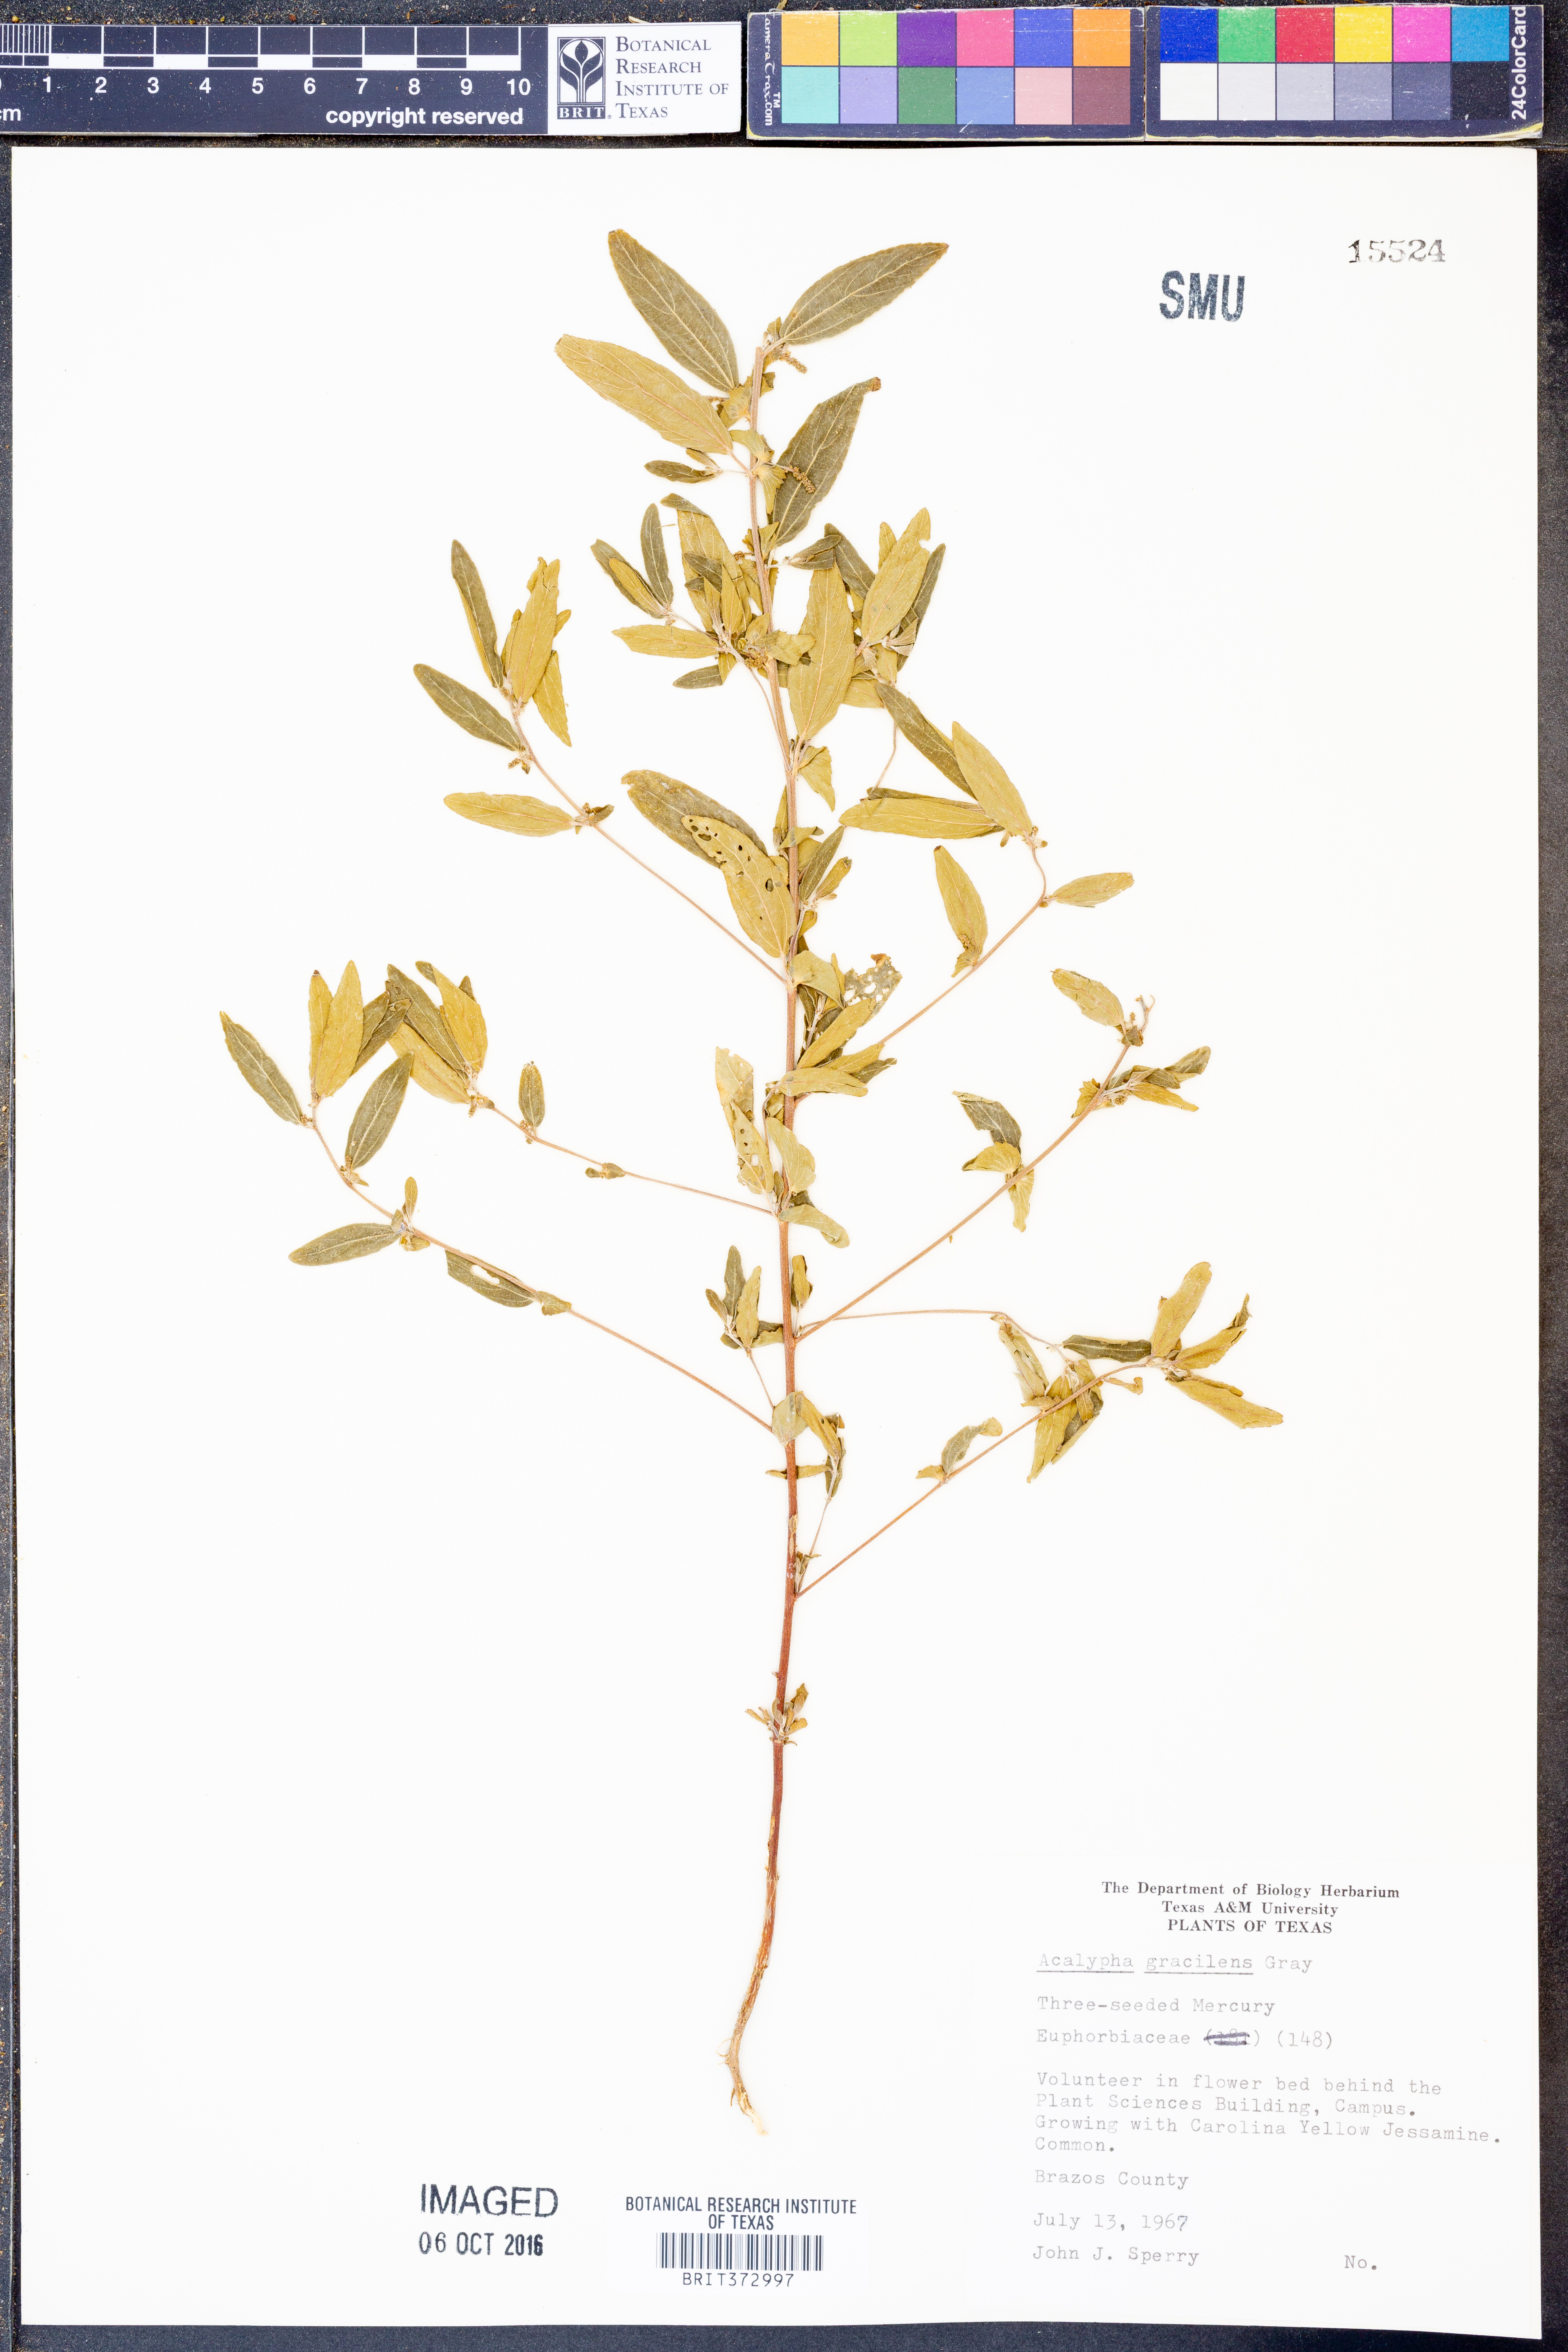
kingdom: Plantae
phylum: Tracheophyta
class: Magnoliopsida
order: Malpighiales
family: Euphorbiaceae
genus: Acalypha
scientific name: Acalypha gracilens
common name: Slender three-seeded mercury
